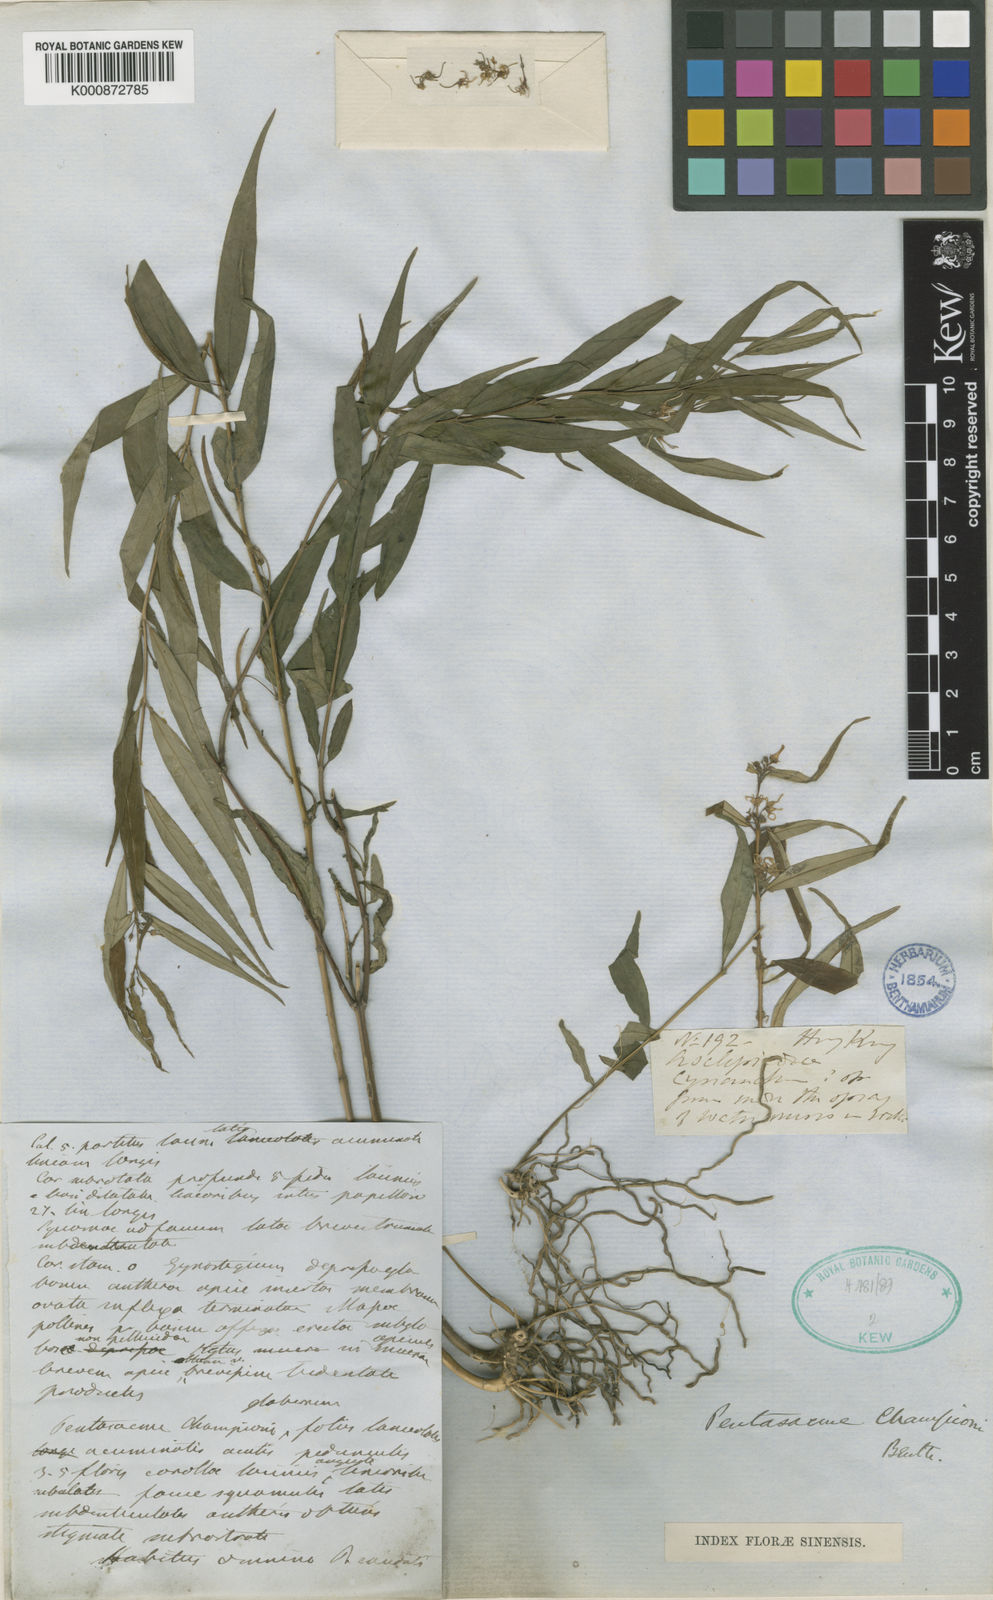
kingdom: Plantae
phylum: Tracheophyta
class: Magnoliopsida
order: Gentianales
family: Apocynaceae
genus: Pentasachme
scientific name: Pentasachme caudatum
